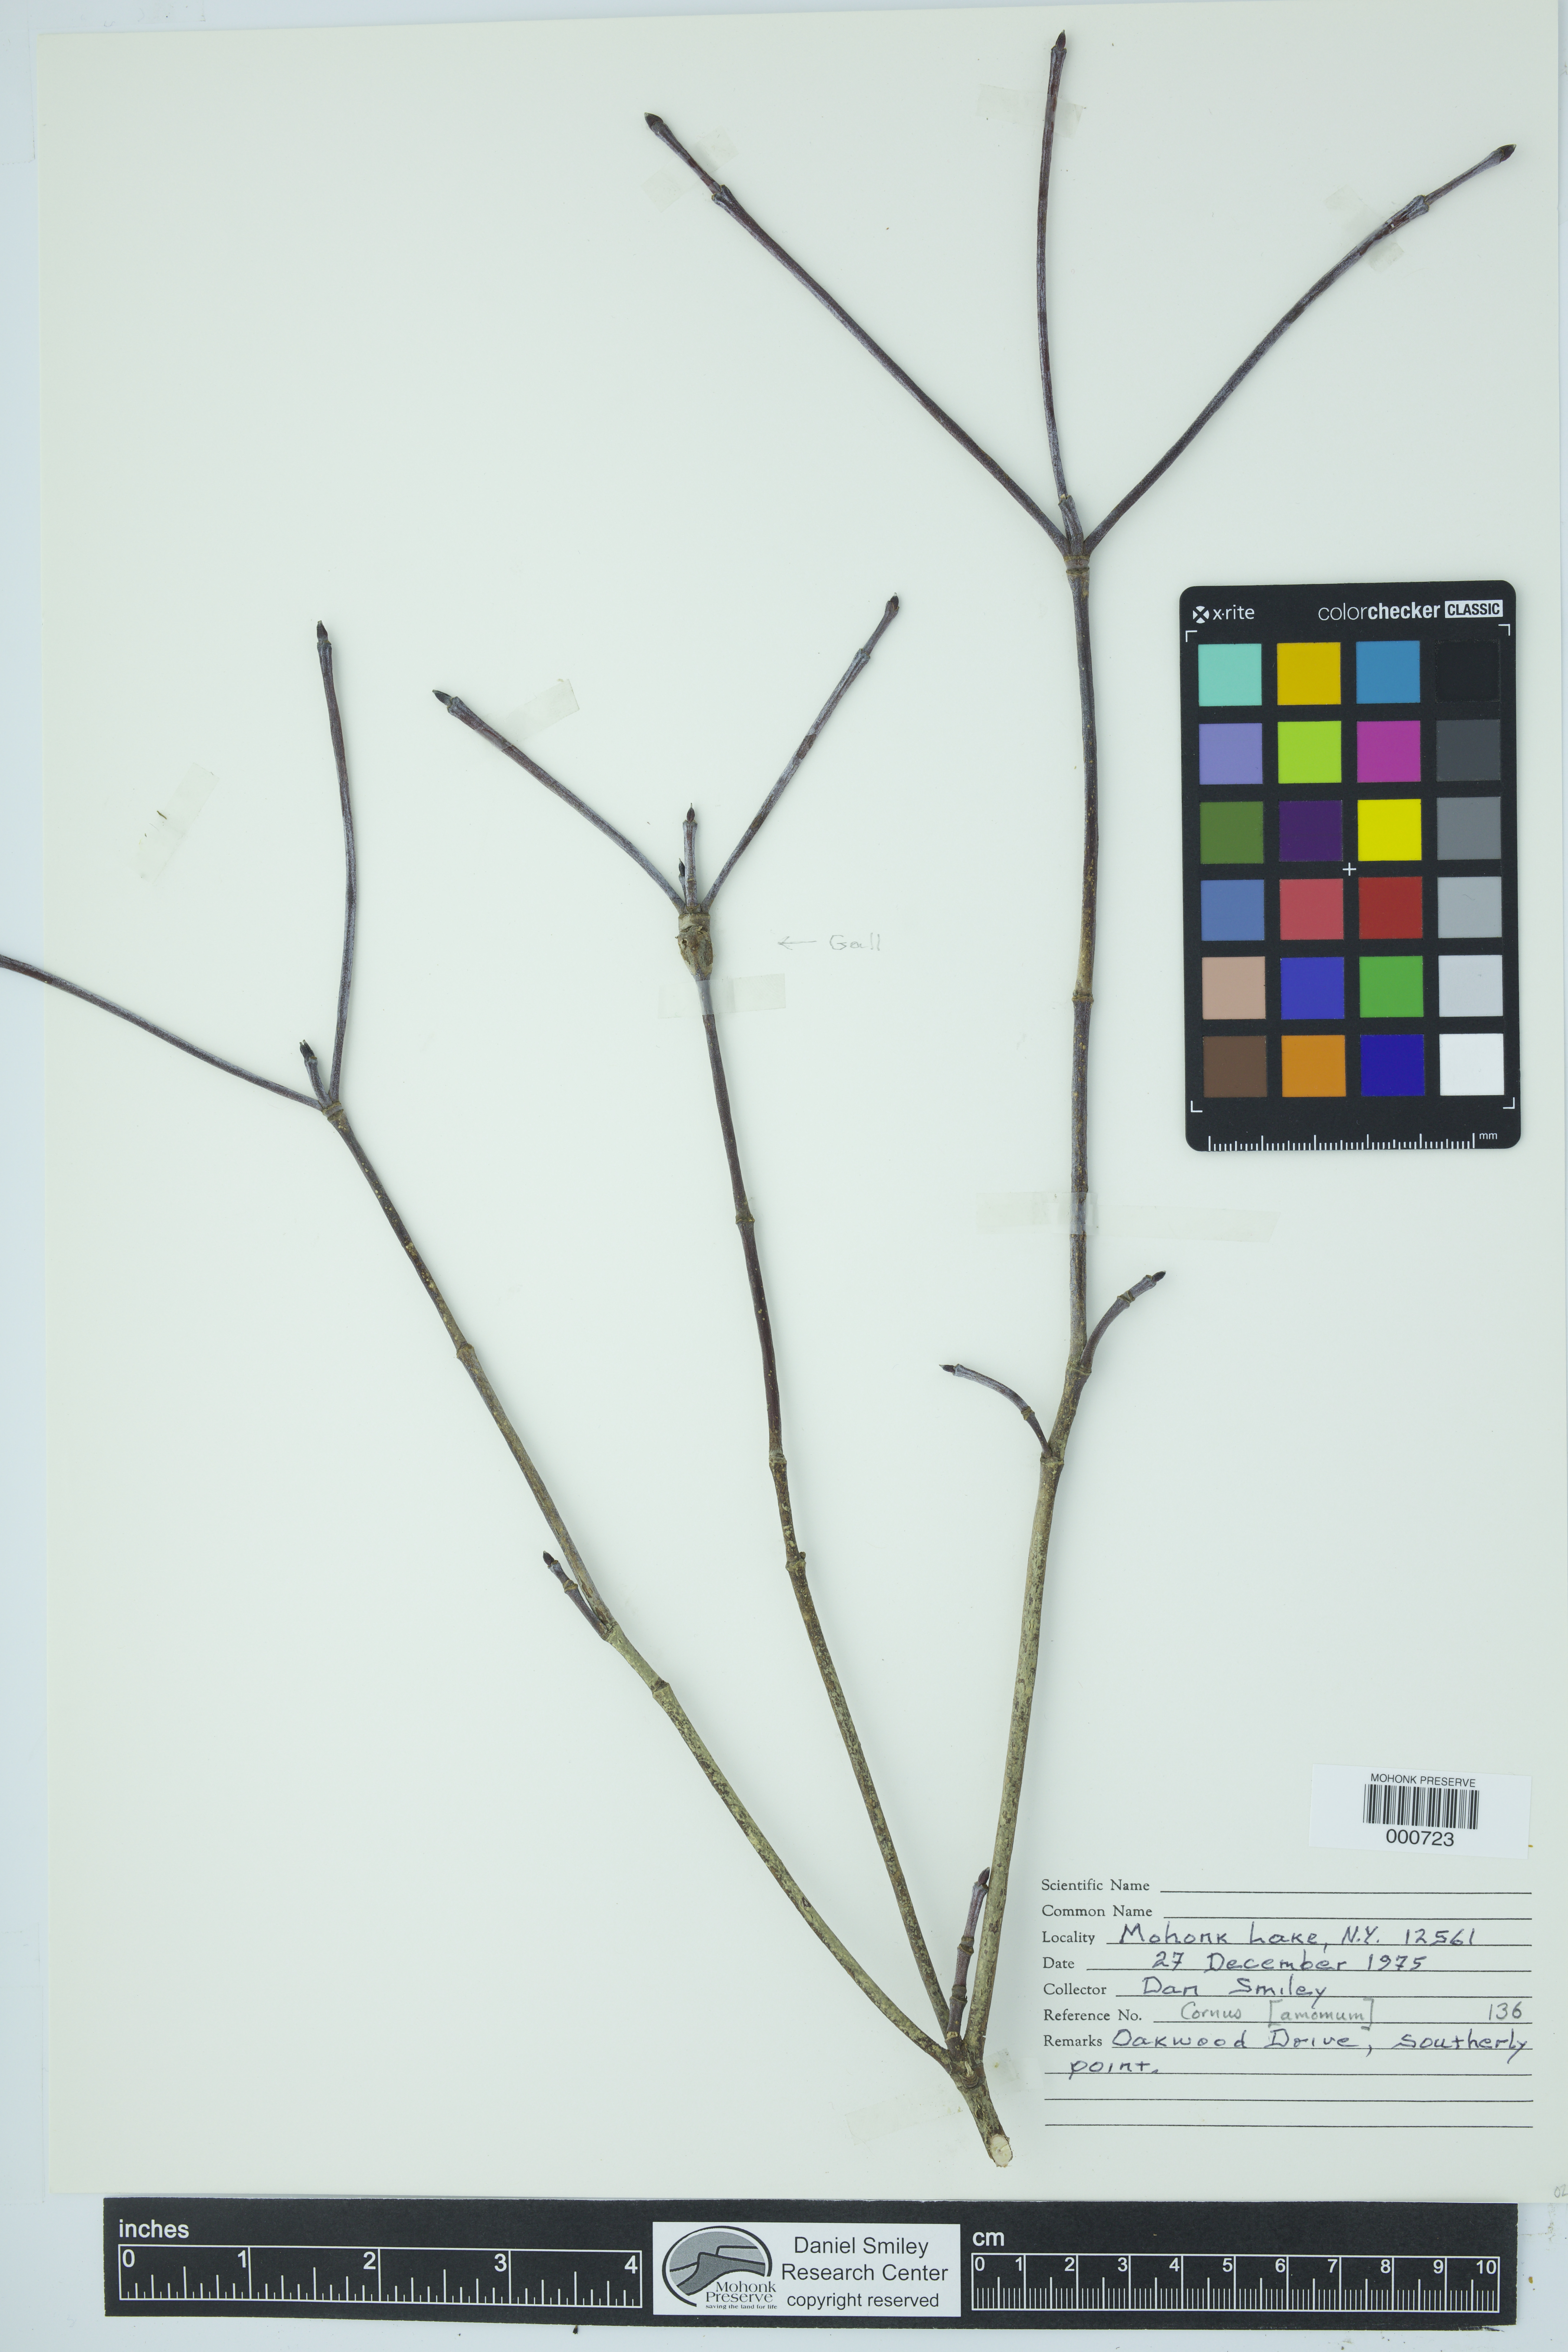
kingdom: Plantae
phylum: Tracheophyta
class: Magnoliopsida
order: Cornales
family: Cornaceae
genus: Cornus
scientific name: Cornus amomum
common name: Silky dogwood
